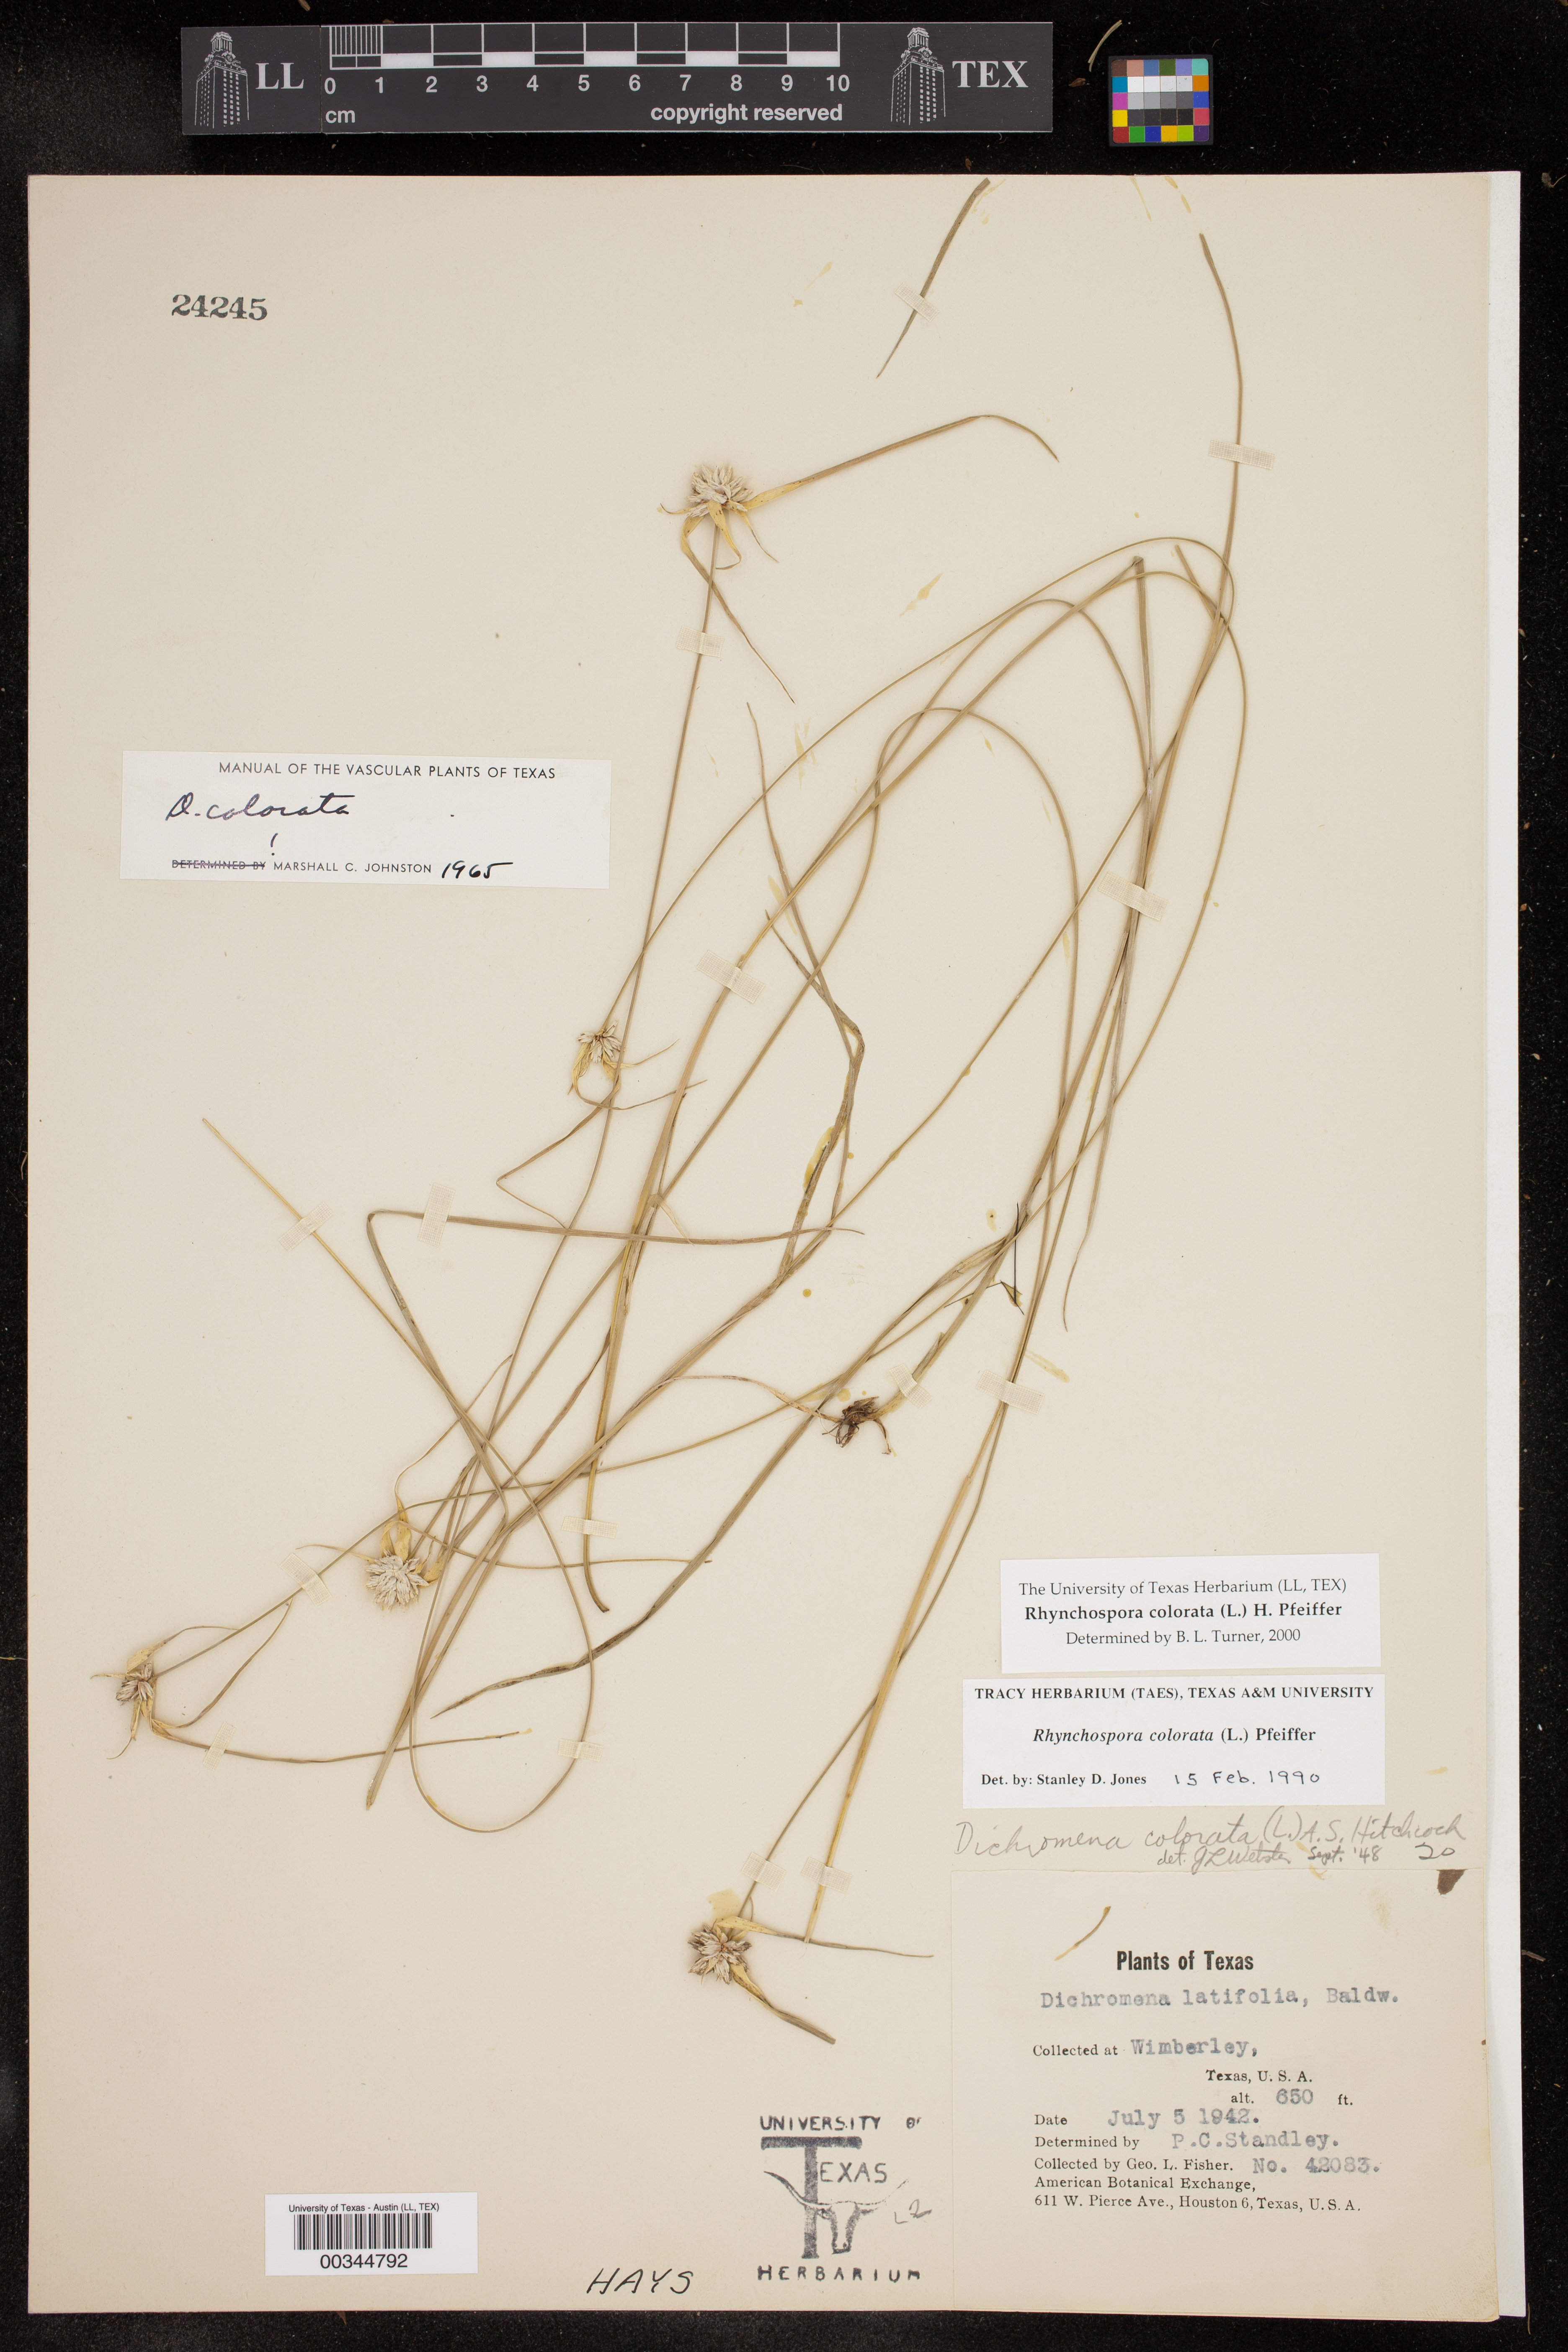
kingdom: Plantae
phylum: Tracheophyta
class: Liliopsida
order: Poales
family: Cyperaceae
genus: Rhynchospora
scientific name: Rhynchospora colorata
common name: Star sedge
